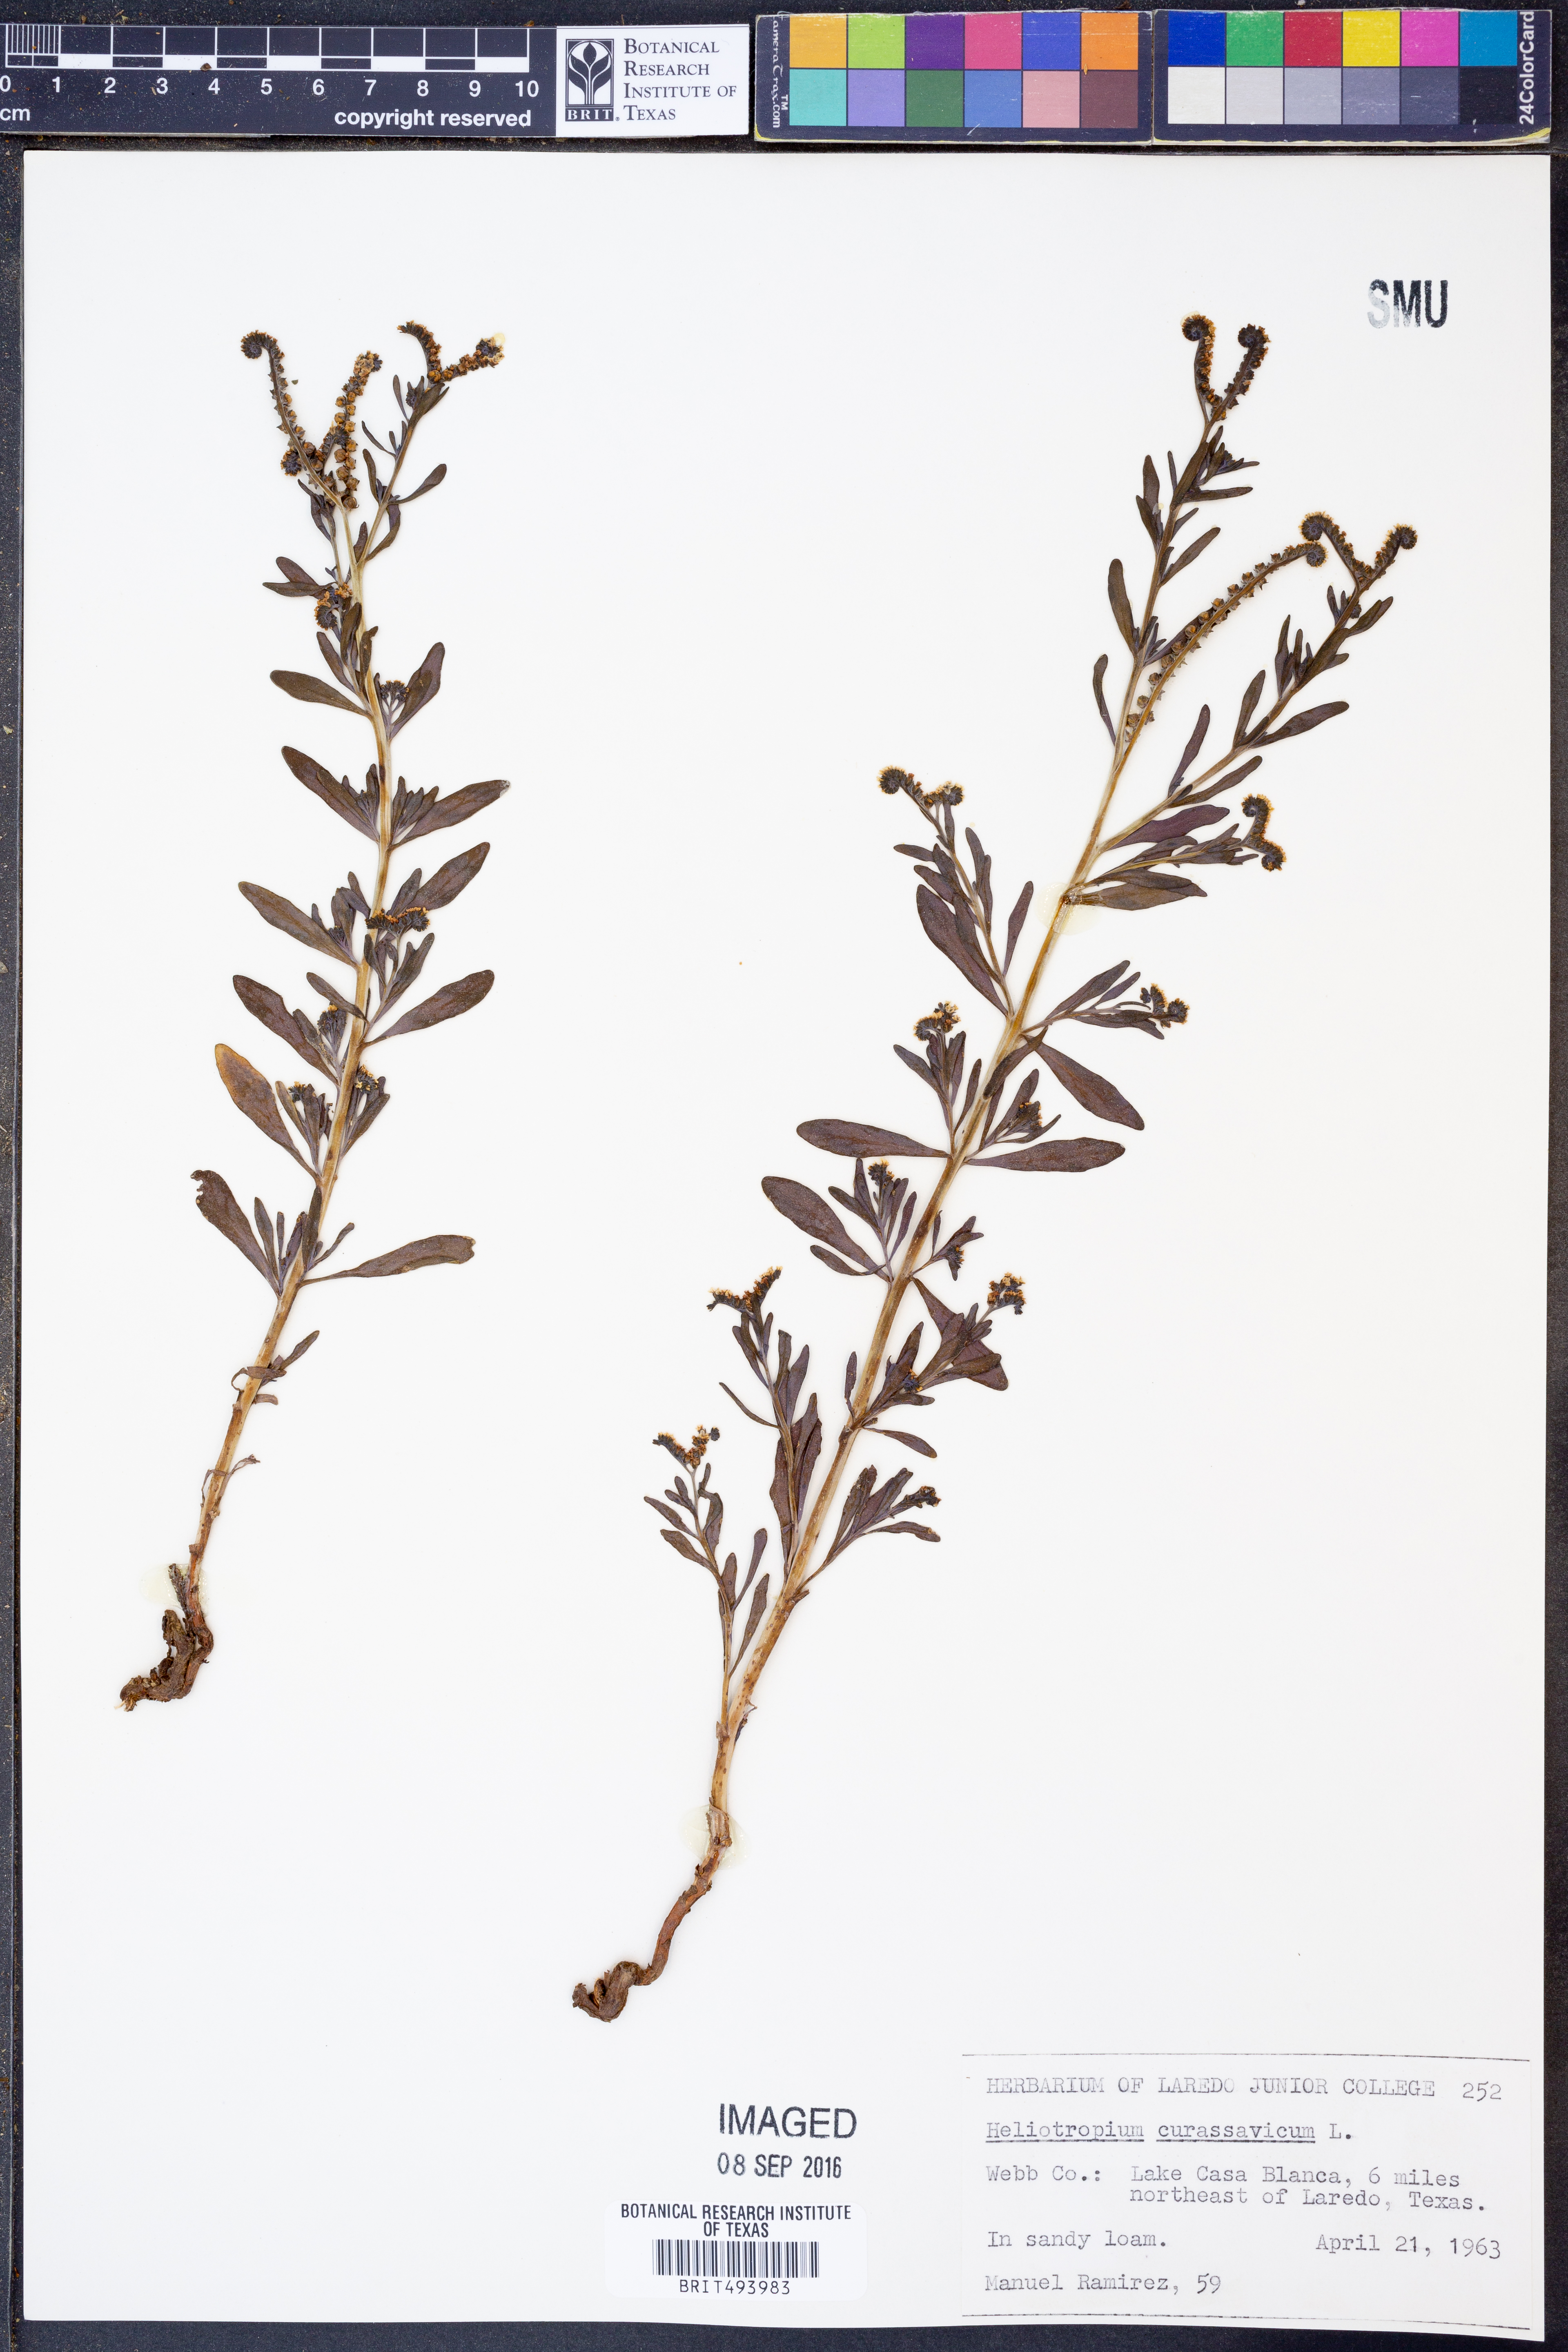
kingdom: Plantae
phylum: Tracheophyta
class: Magnoliopsida
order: Boraginales
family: Heliotropiaceae
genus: Heliotropium
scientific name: Heliotropium curassavicum
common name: Seaside heliotrope
